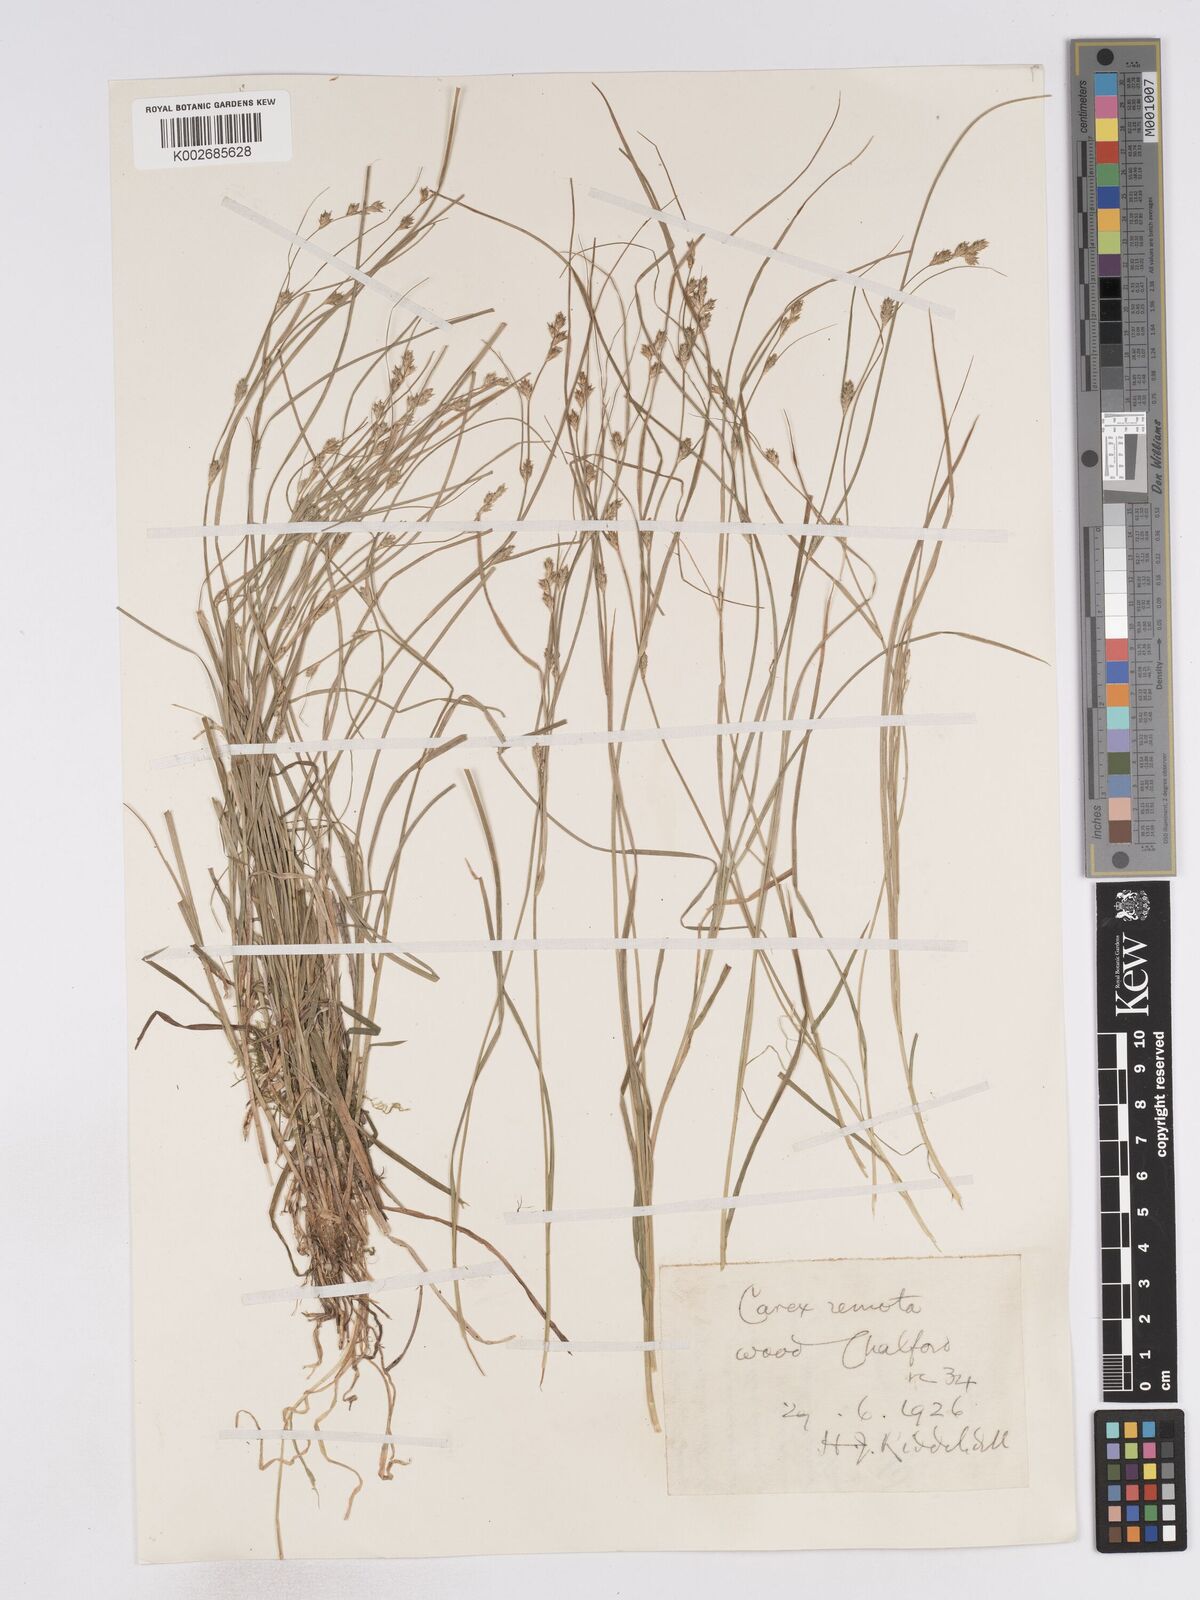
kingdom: Plantae
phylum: Tracheophyta
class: Liliopsida
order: Poales
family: Cyperaceae
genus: Carex
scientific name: Carex remota
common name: Remote sedge
